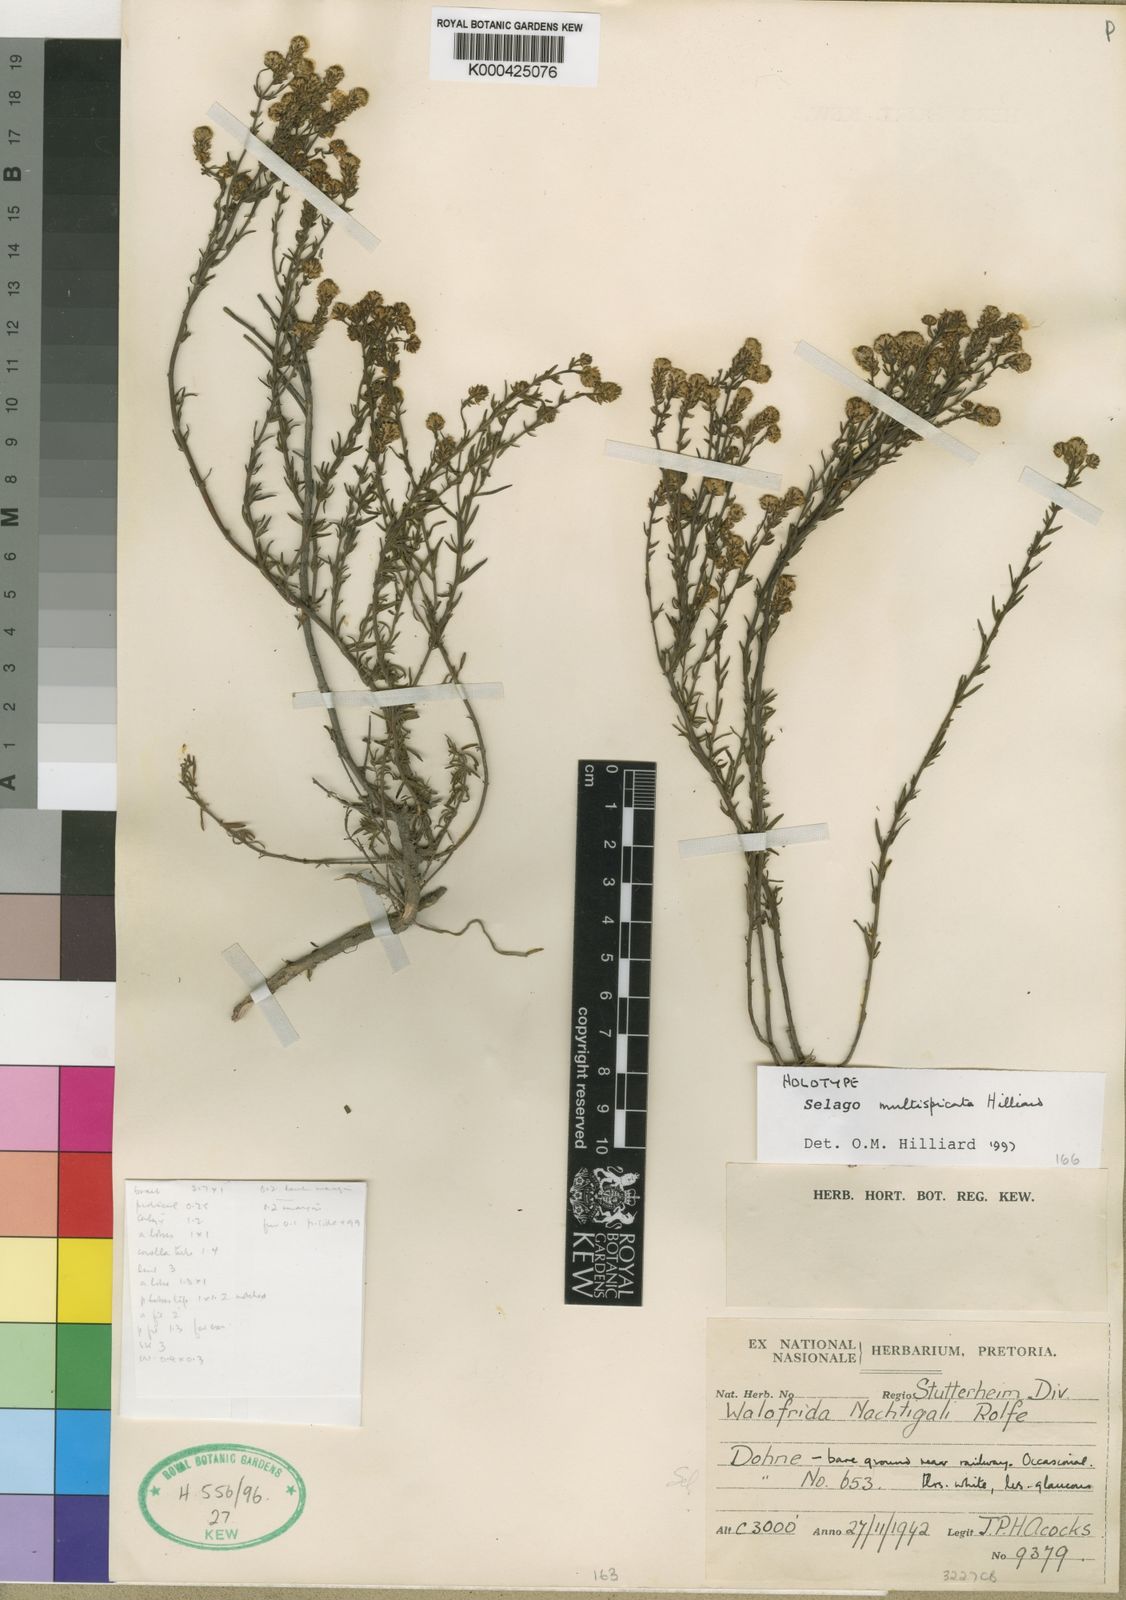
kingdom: Plantae
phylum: Tracheophyta
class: Magnoliopsida
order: Lamiales
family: Scrophulariaceae
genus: Selago
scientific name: Selago multispicata
